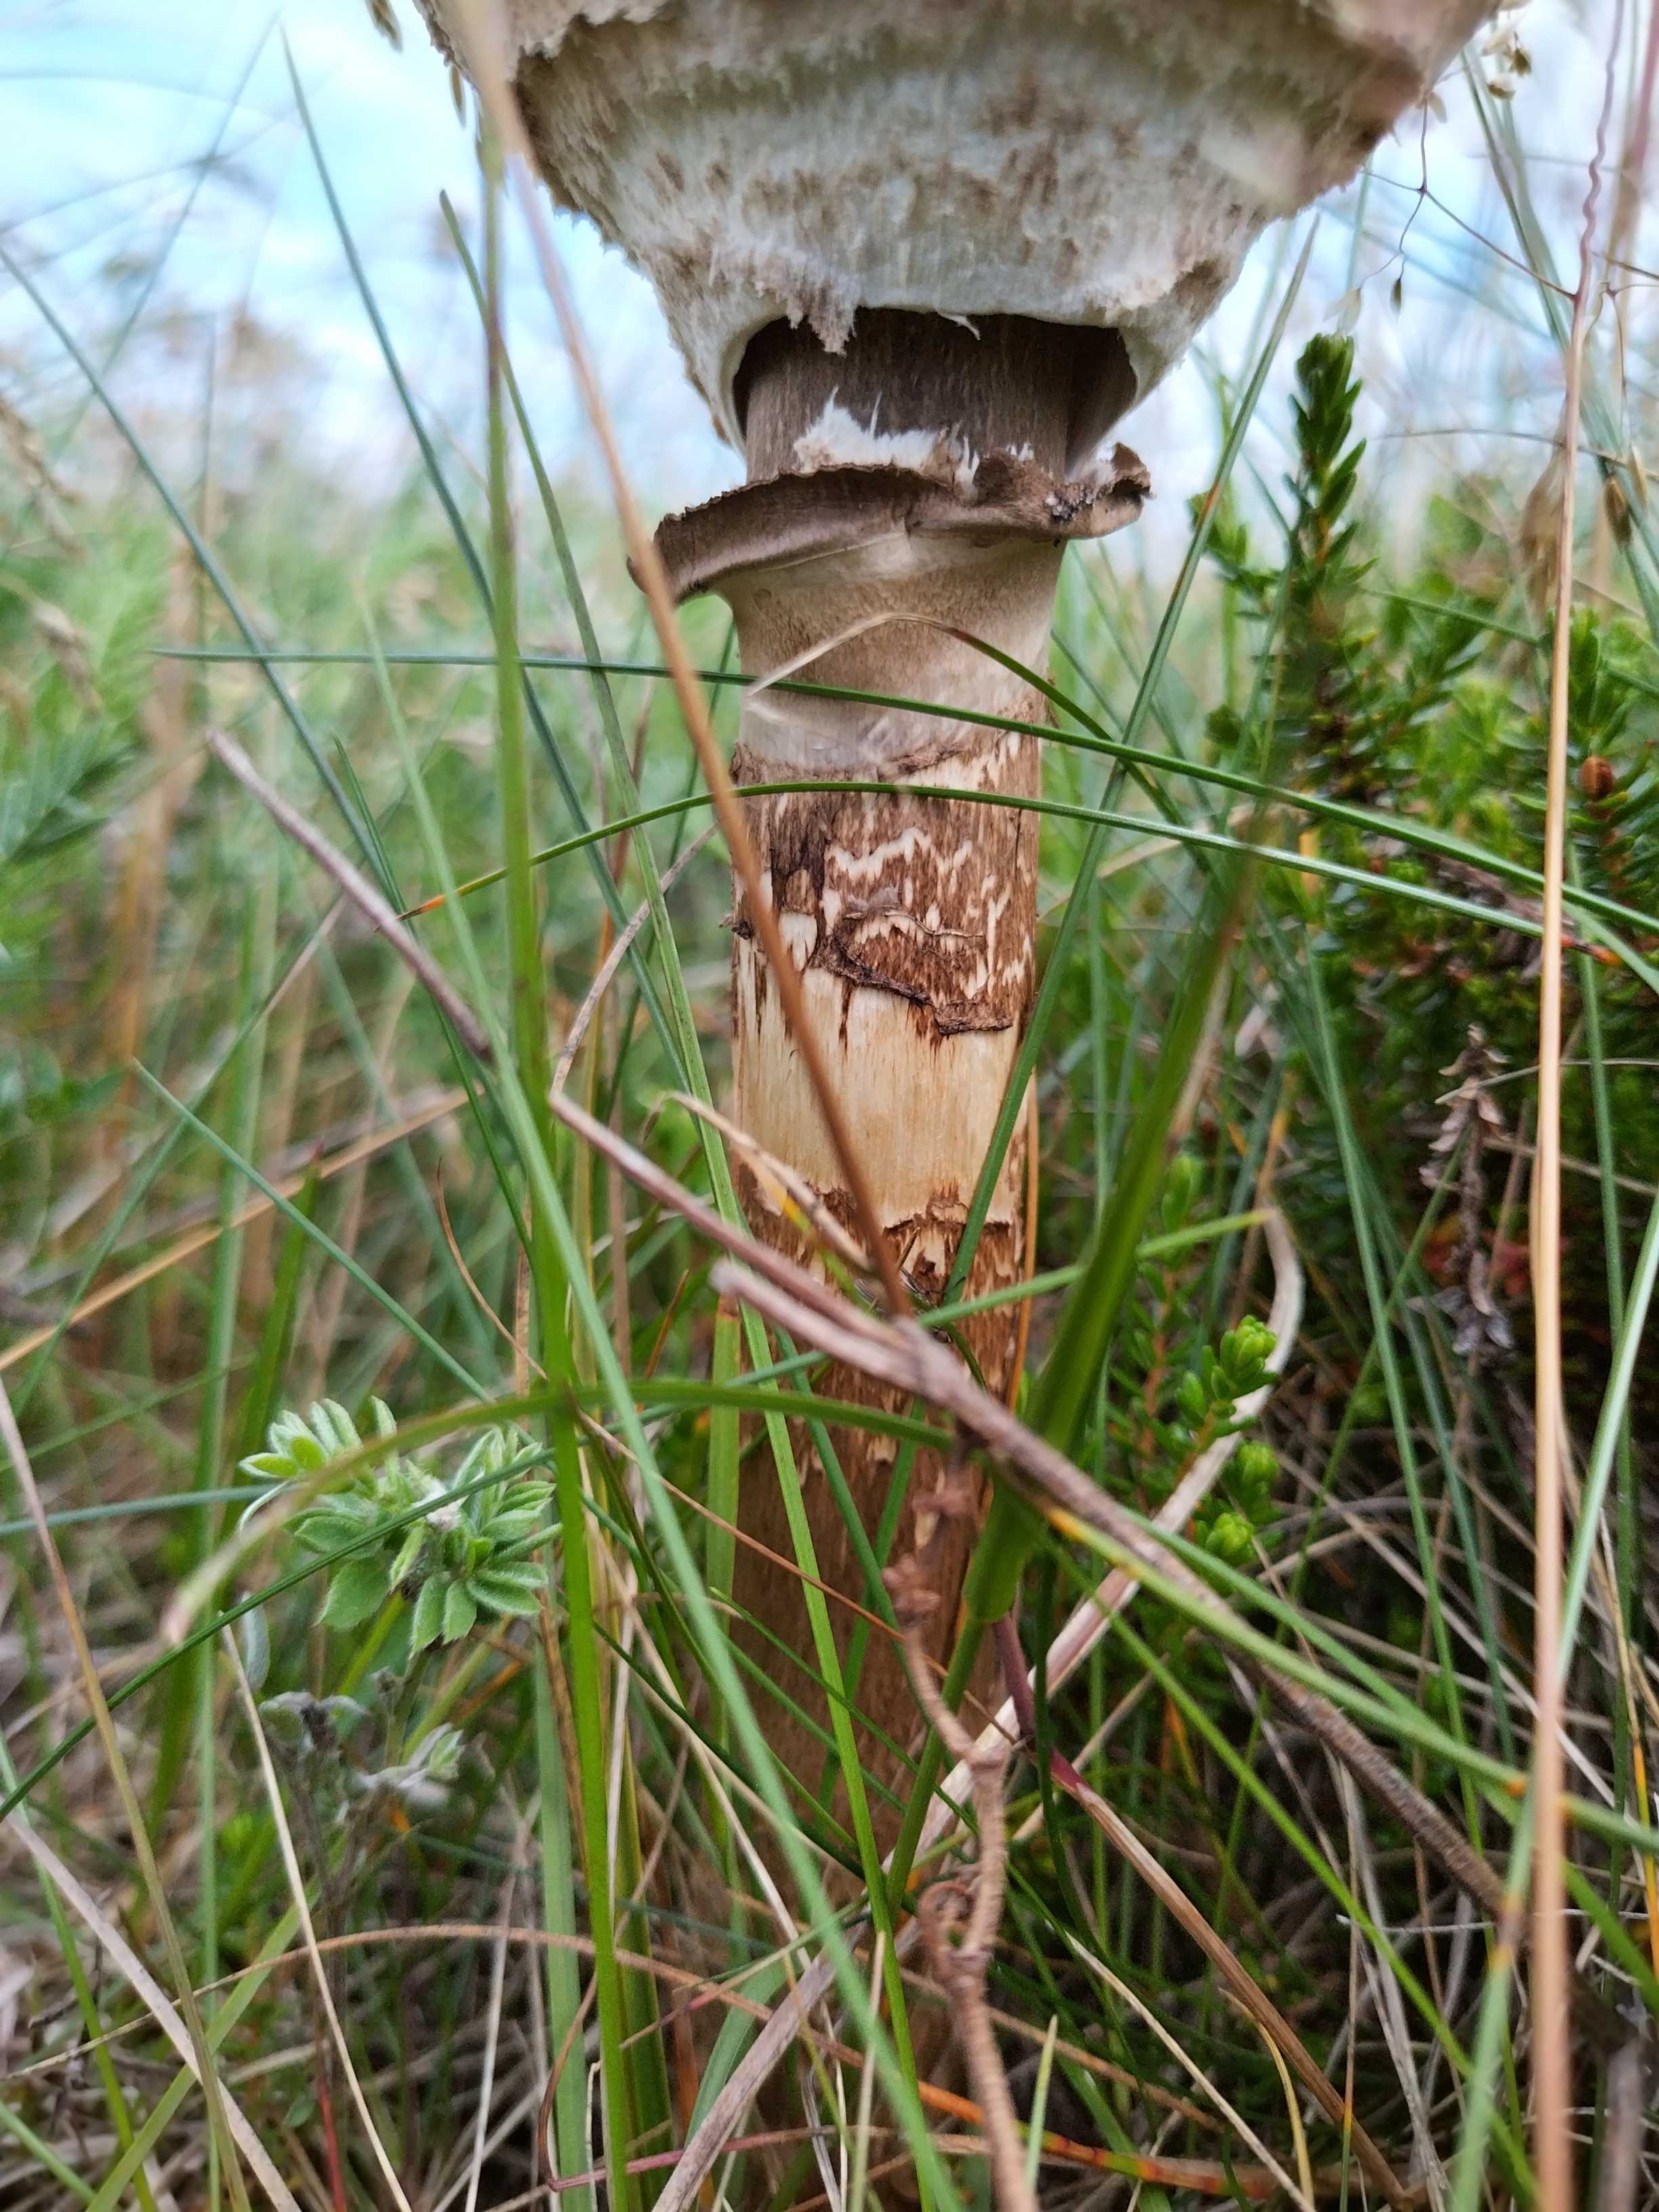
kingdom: Fungi
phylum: Basidiomycota
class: Agaricomycetes
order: Agaricales
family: Agaricaceae
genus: Macrolepiota
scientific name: Macrolepiota procera
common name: stor kæmpeparasolhat
